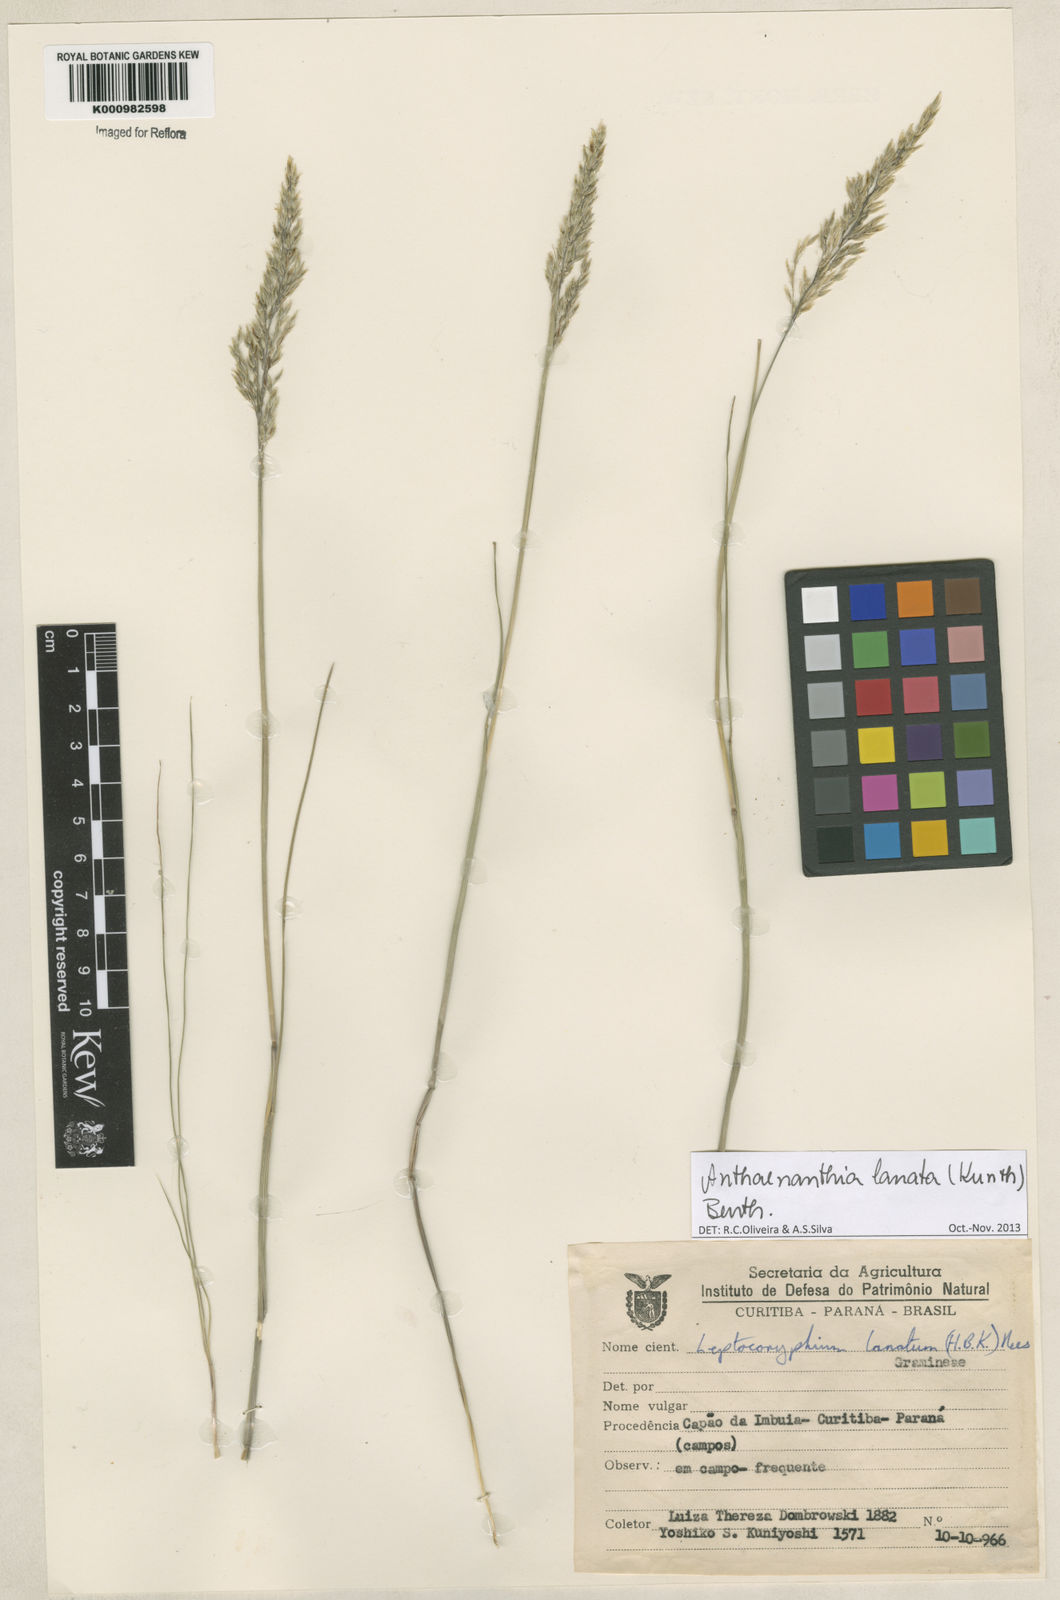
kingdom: Plantae
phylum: Tracheophyta
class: Liliopsida
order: Poales
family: Poaceae
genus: Anthenantia
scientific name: Anthenantia lanata
